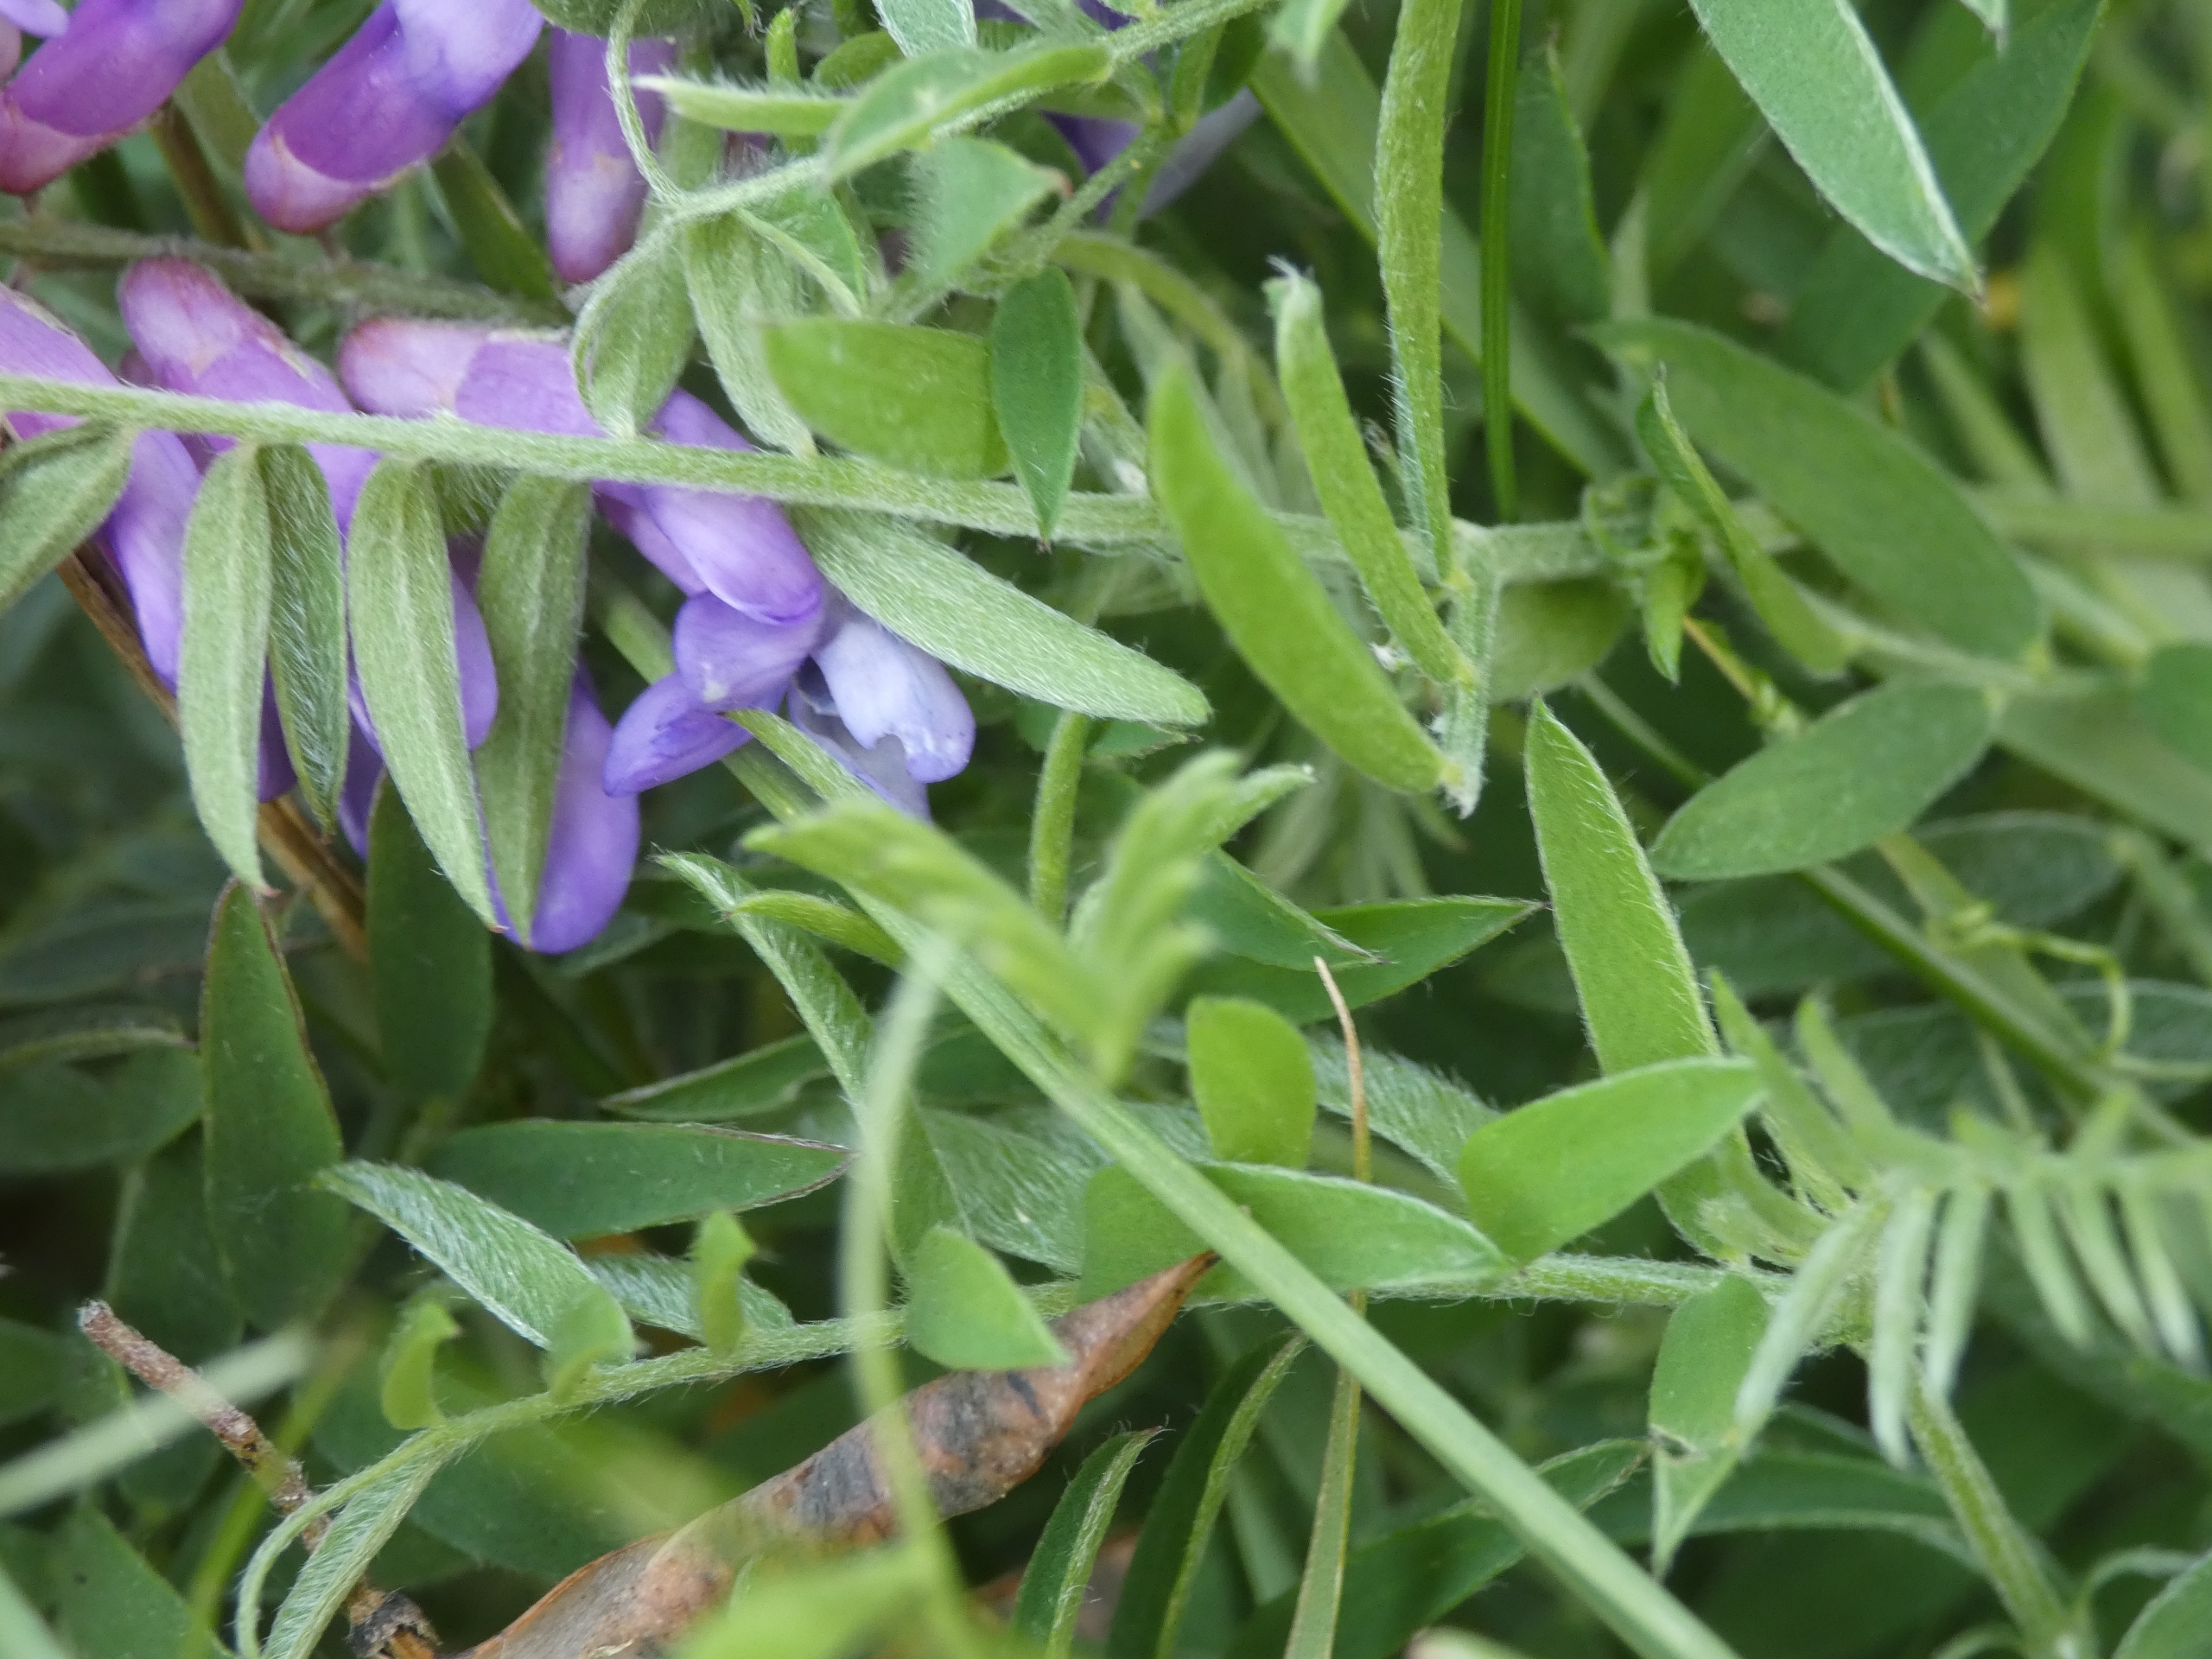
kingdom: Plantae
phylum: Tracheophyta
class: Magnoliopsida
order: Fabales
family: Fabaceae
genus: Vicia
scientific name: Vicia cracca
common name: Muse-vikke
